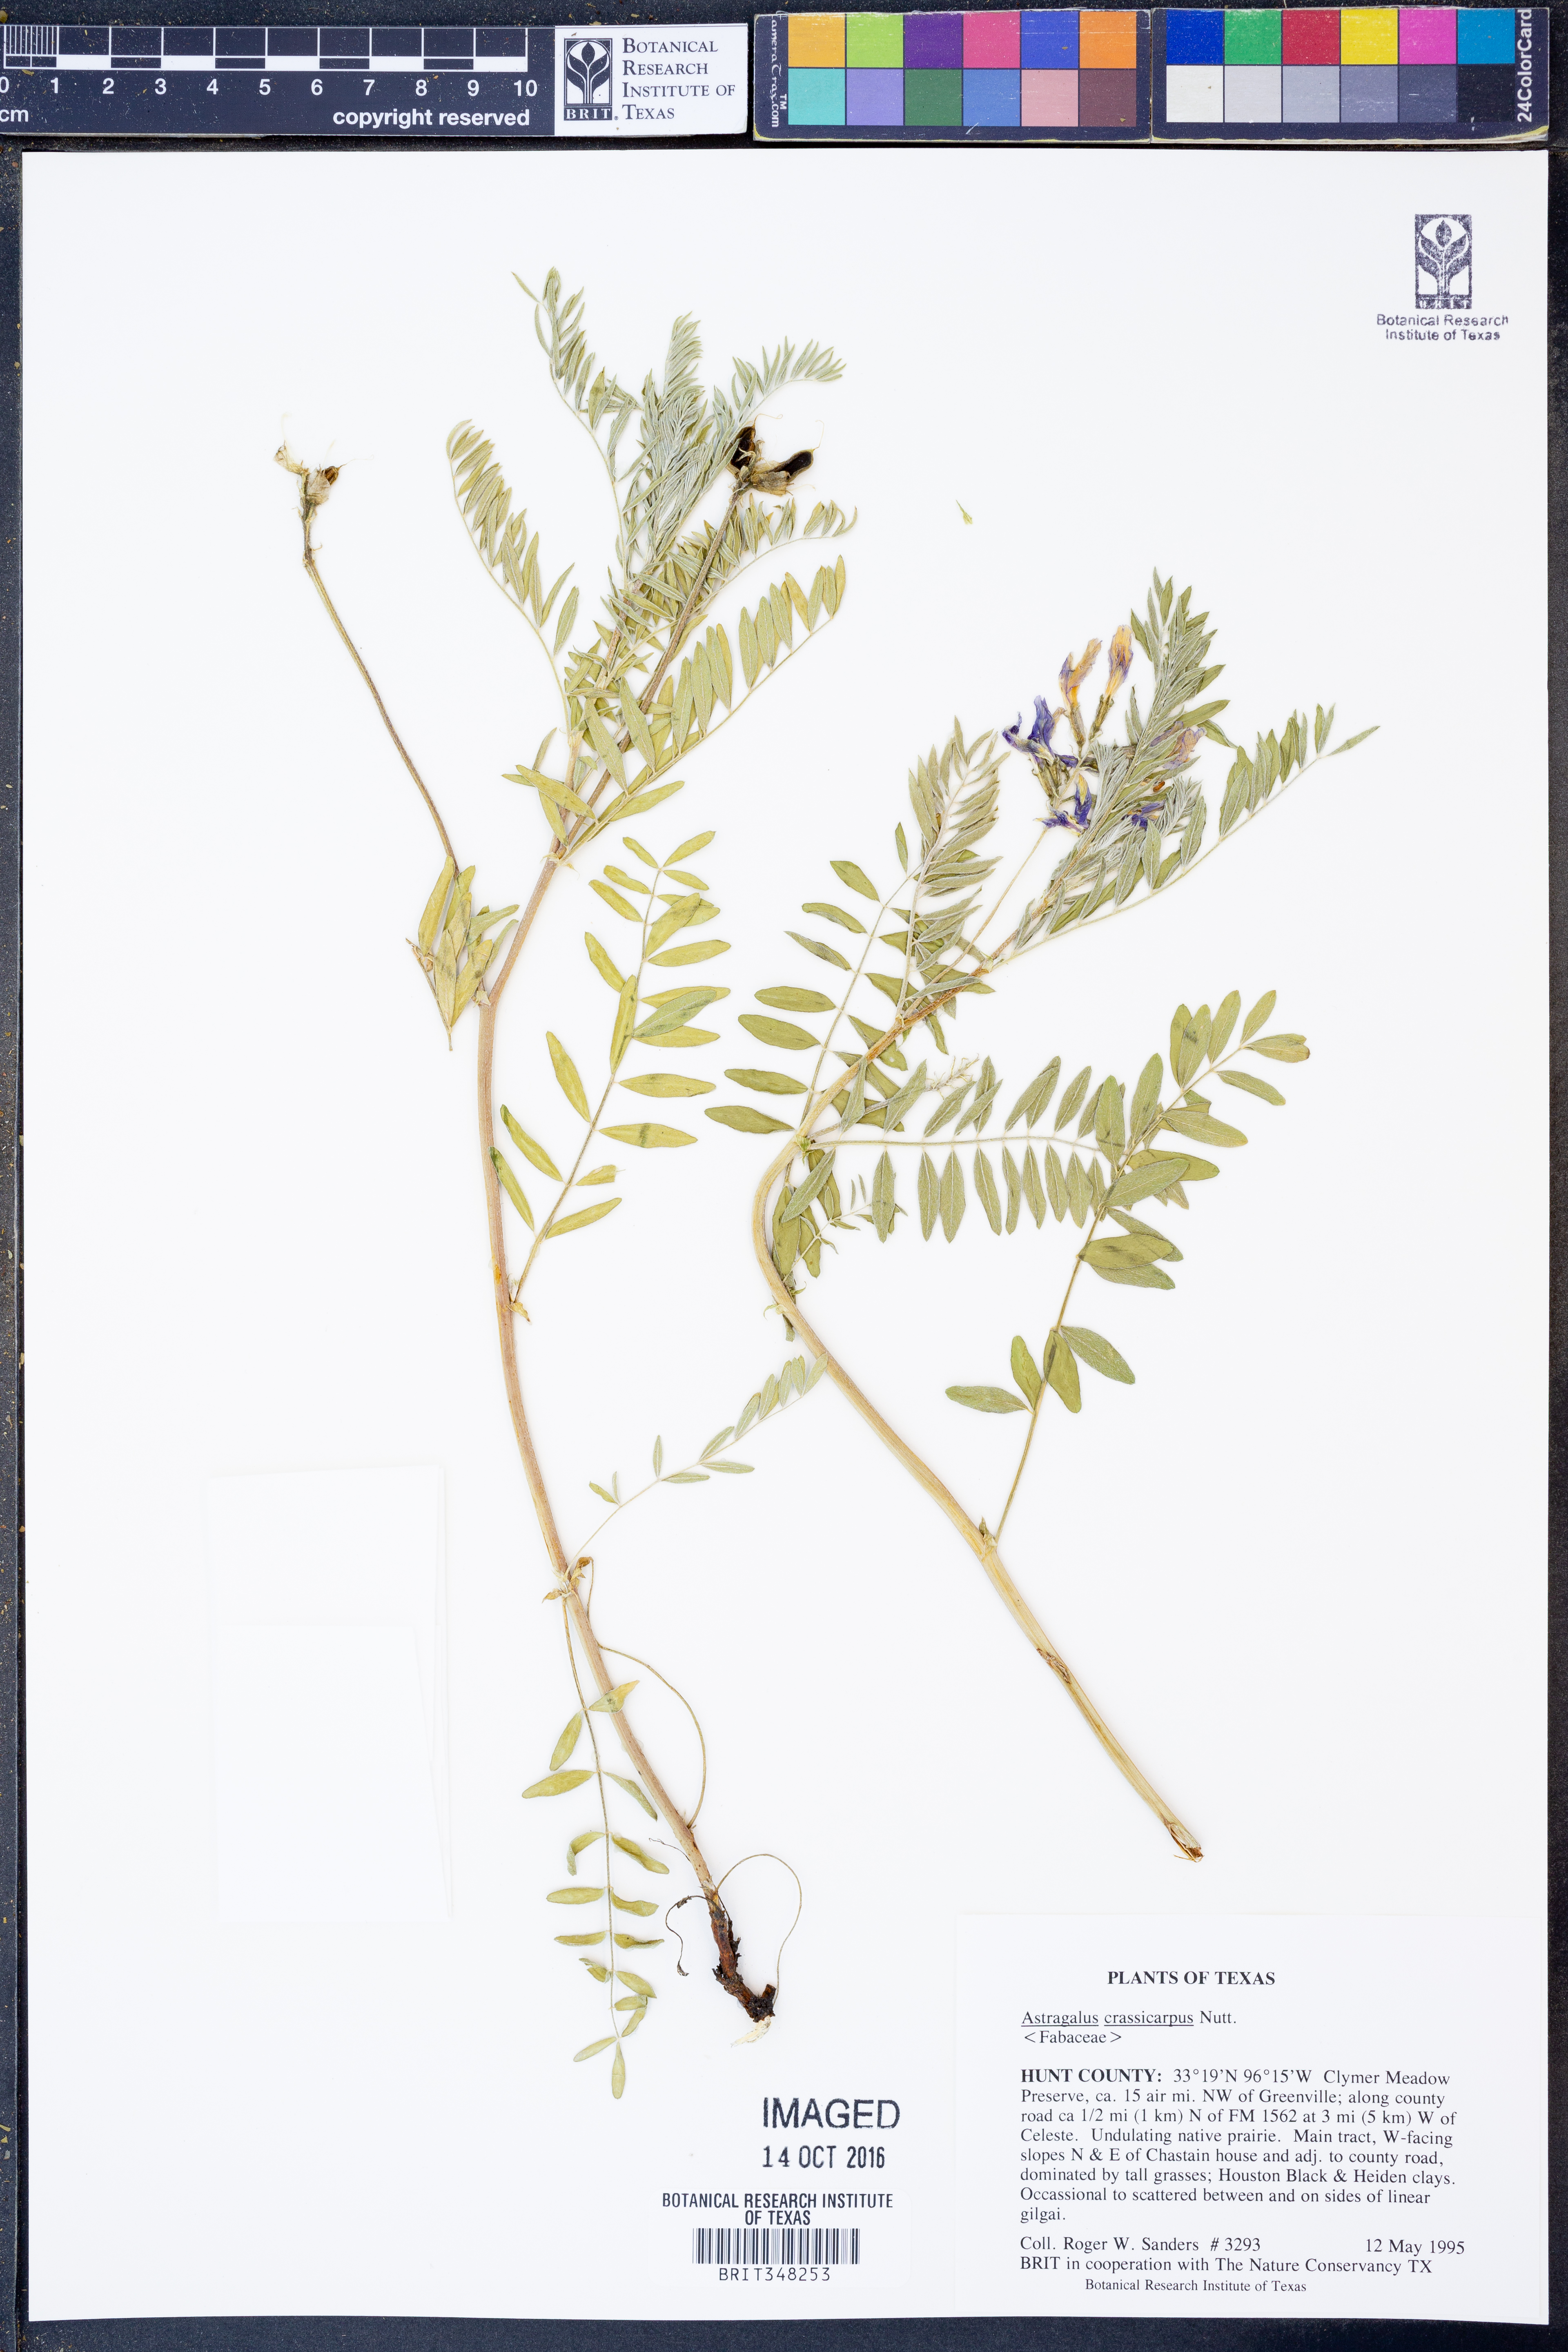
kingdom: Plantae
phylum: Tracheophyta
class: Magnoliopsida
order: Fabales
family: Fabaceae
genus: Astragalus
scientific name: Astragalus crassicarpus
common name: Ground-plum milk-vetch
